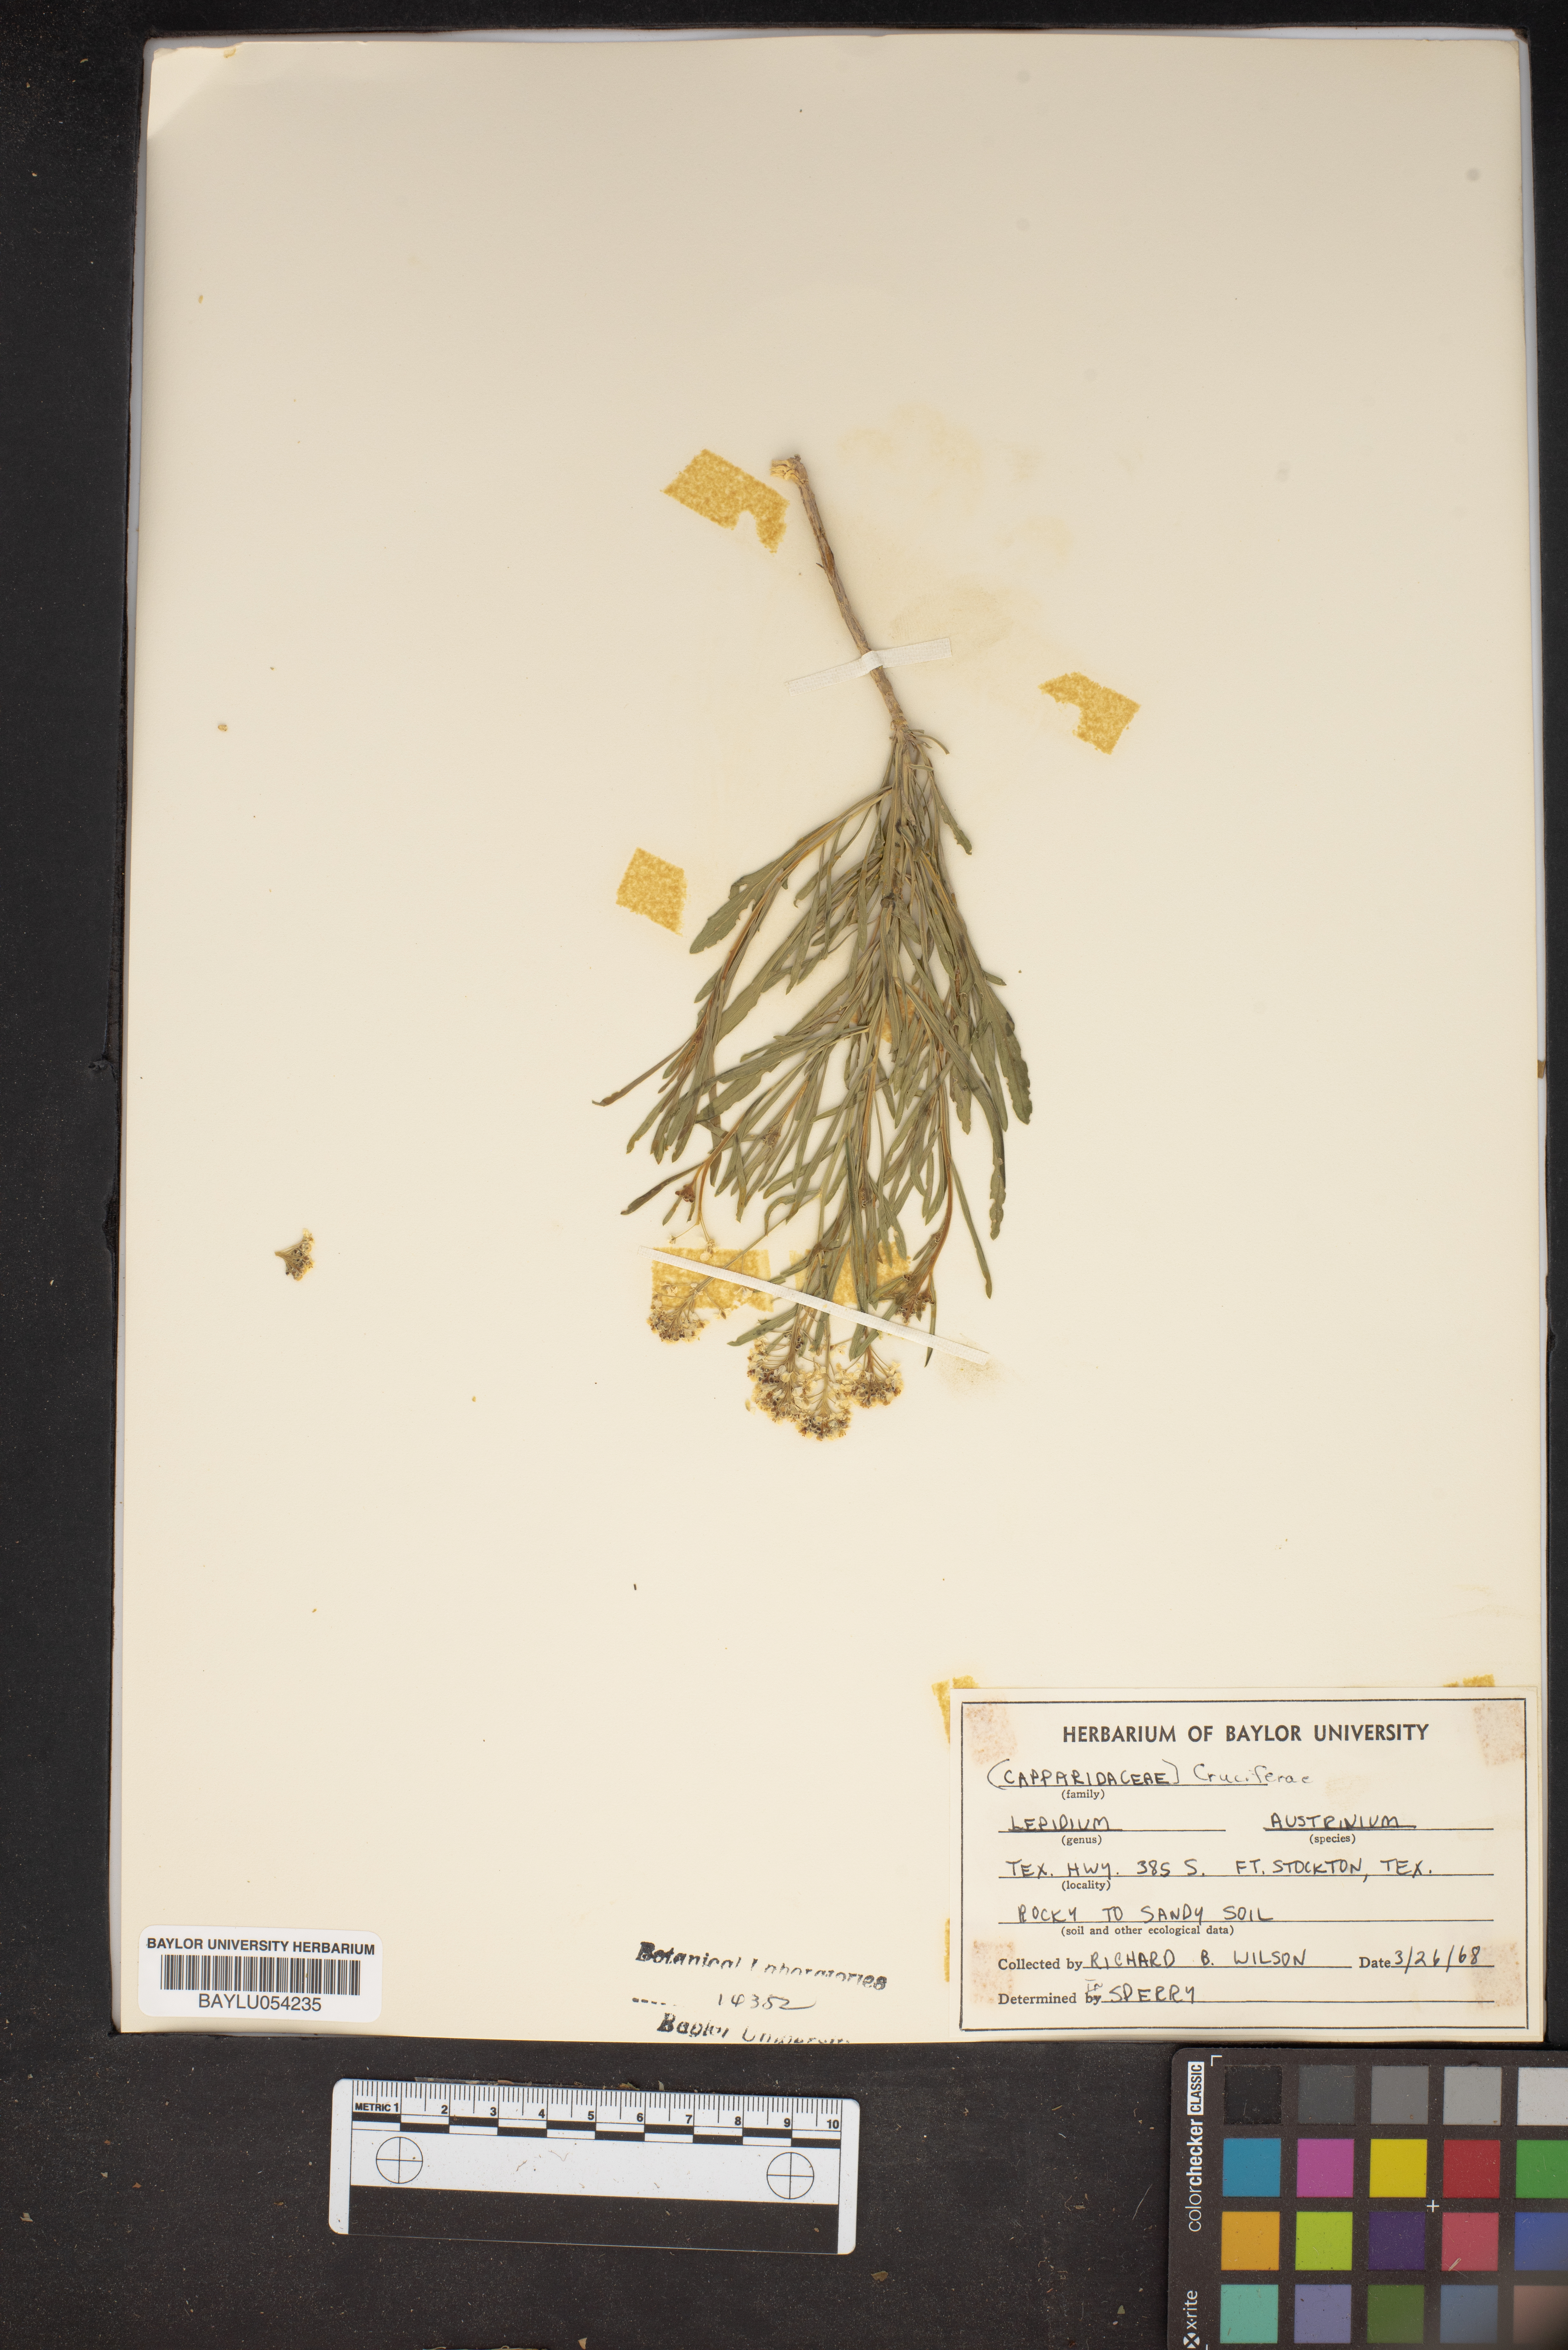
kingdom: Plantae
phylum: Tracheophyta
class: Magnoliopsida
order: Brassicales
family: Brassicaceae
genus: Lepidium
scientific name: Lepidium austrinum
